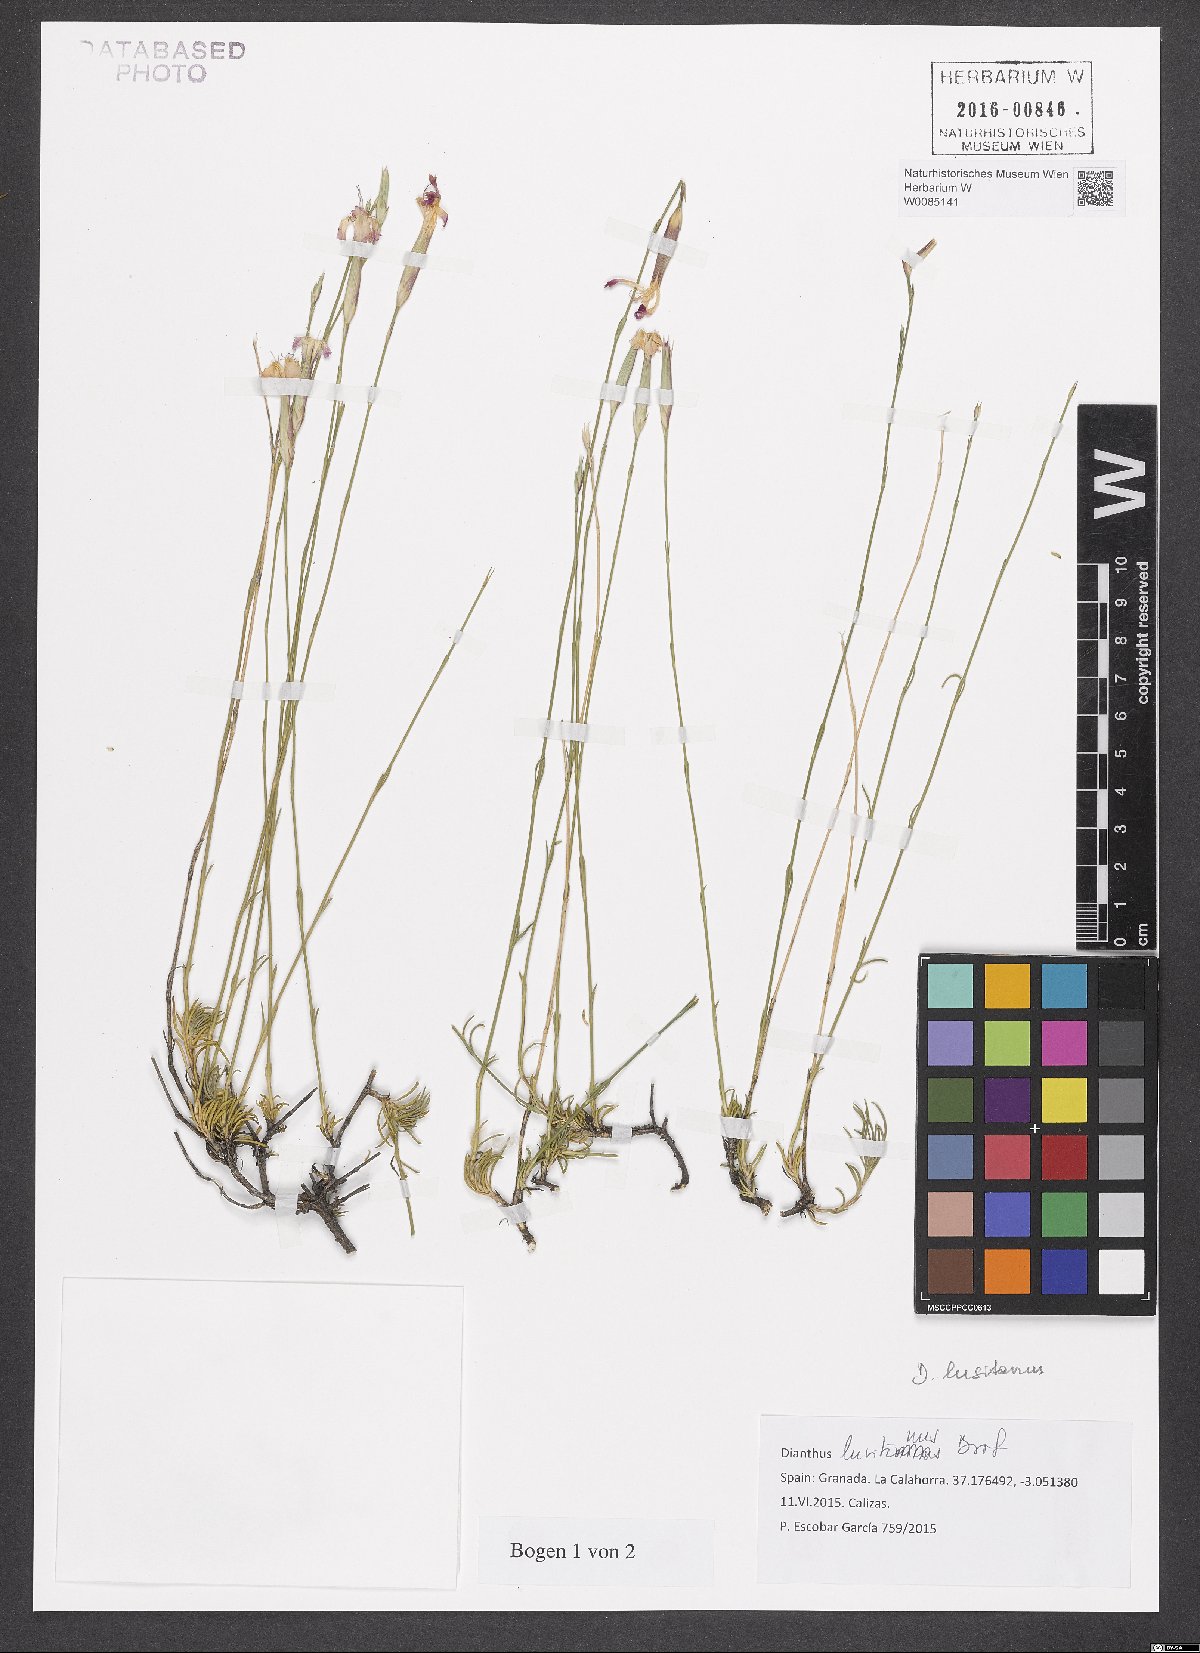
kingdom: Plantae
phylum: Tracheophyta
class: Magnoliopsida
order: Caryophyllales
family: Caryophyllaceae
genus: Dianthus
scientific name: Dianthus lusitanus
